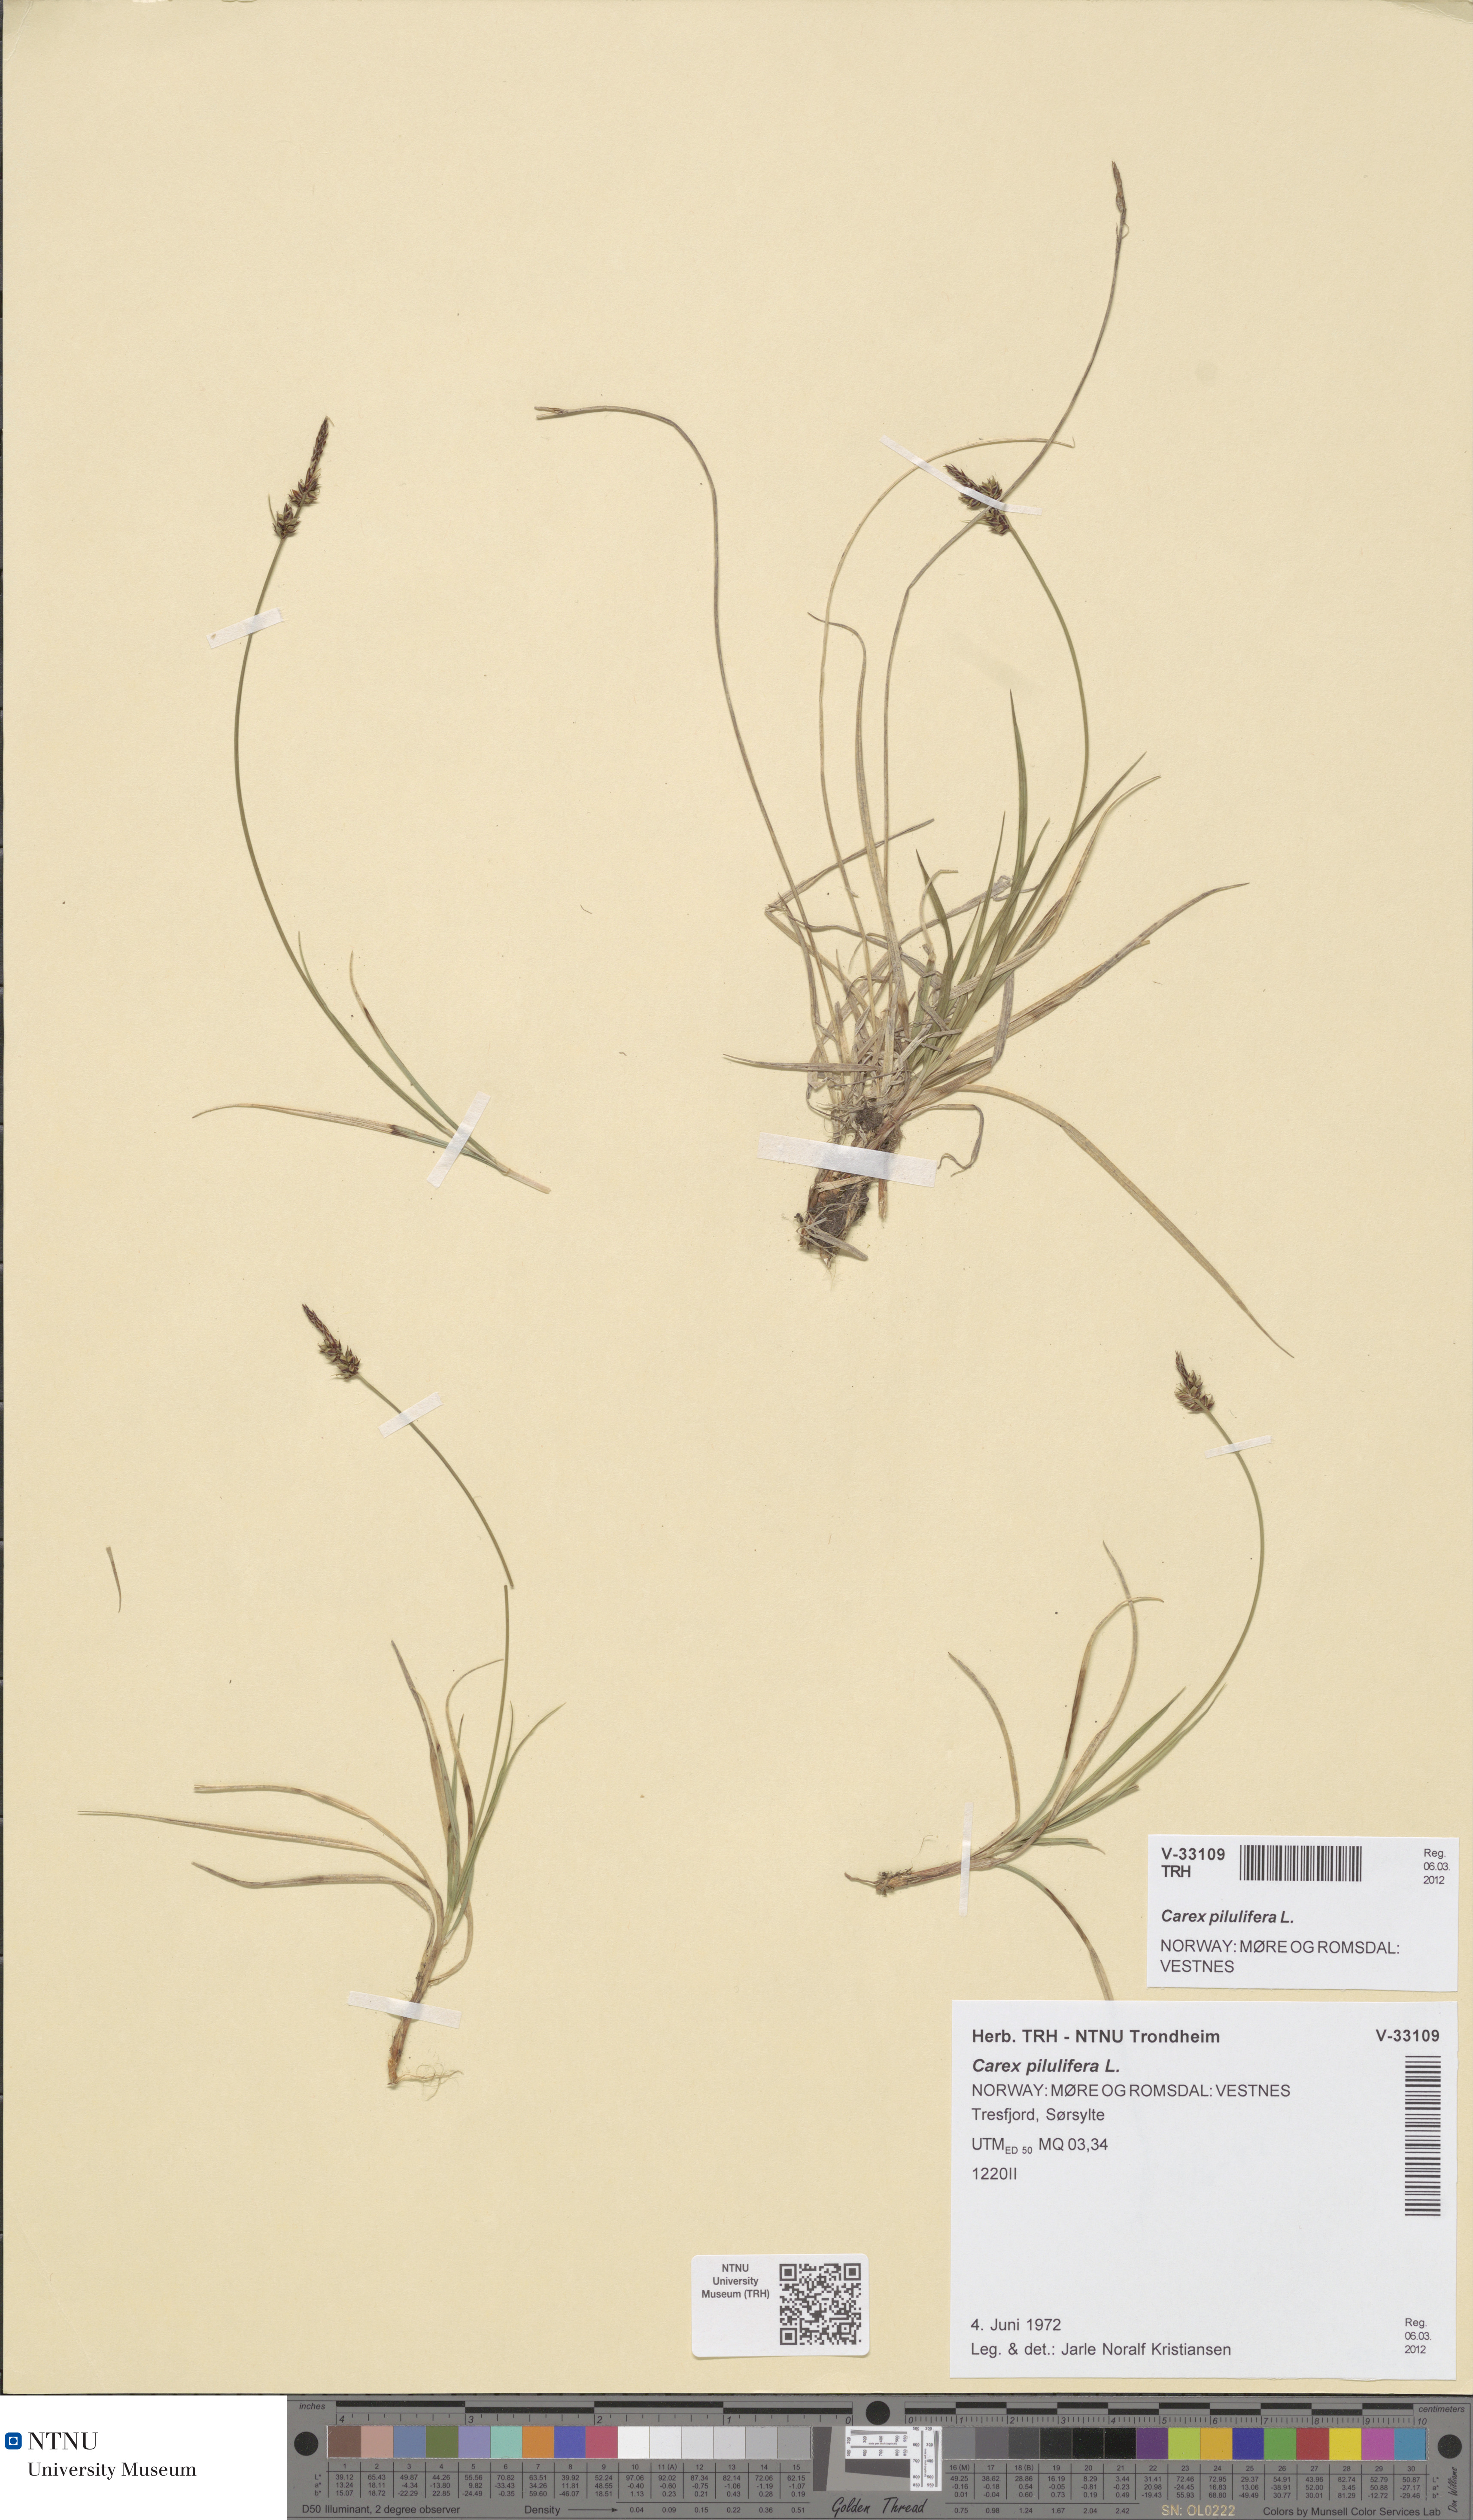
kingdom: Plantae
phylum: Tracheophyta
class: Liliopsida
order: Poales
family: Cyperaceae
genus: Carex
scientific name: Carex pilulifera
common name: Pill sedge
